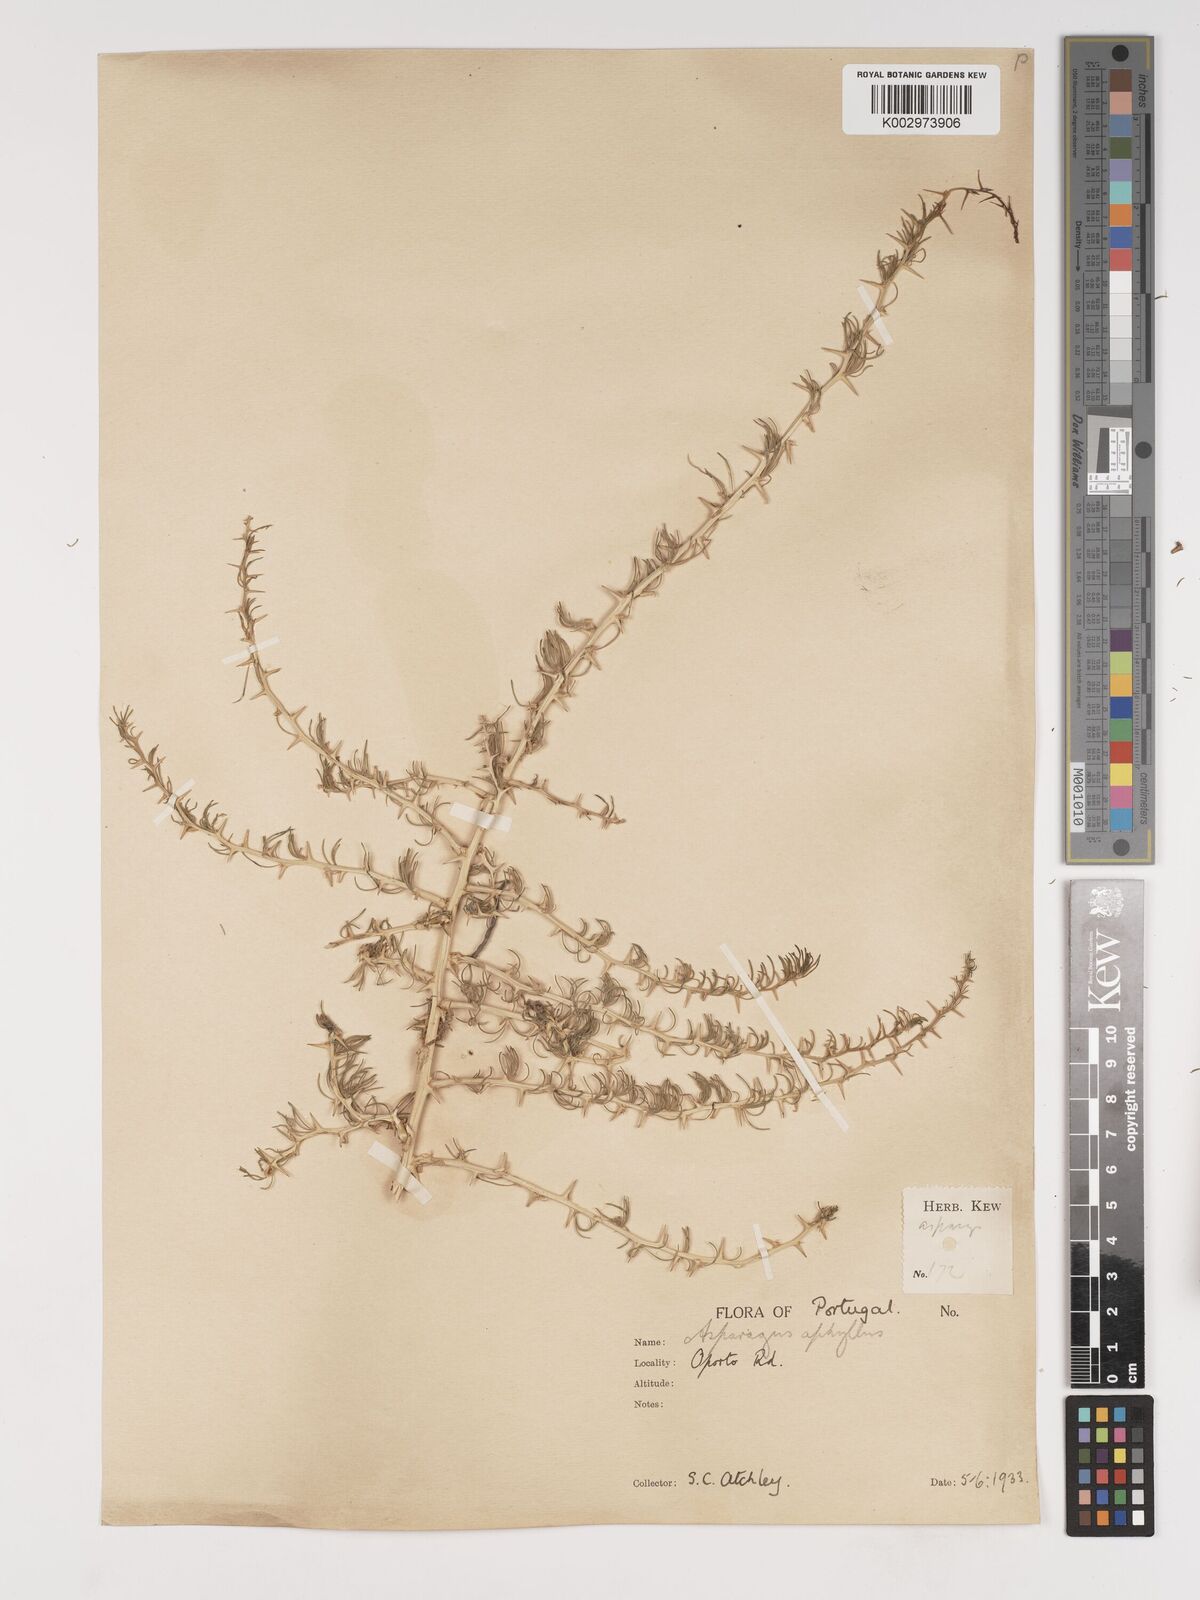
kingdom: Plantae
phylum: Tracheophyta
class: Liliopsida
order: Asparagales
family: Asparagaceae
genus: Asparagus
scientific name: Asparagus albus
